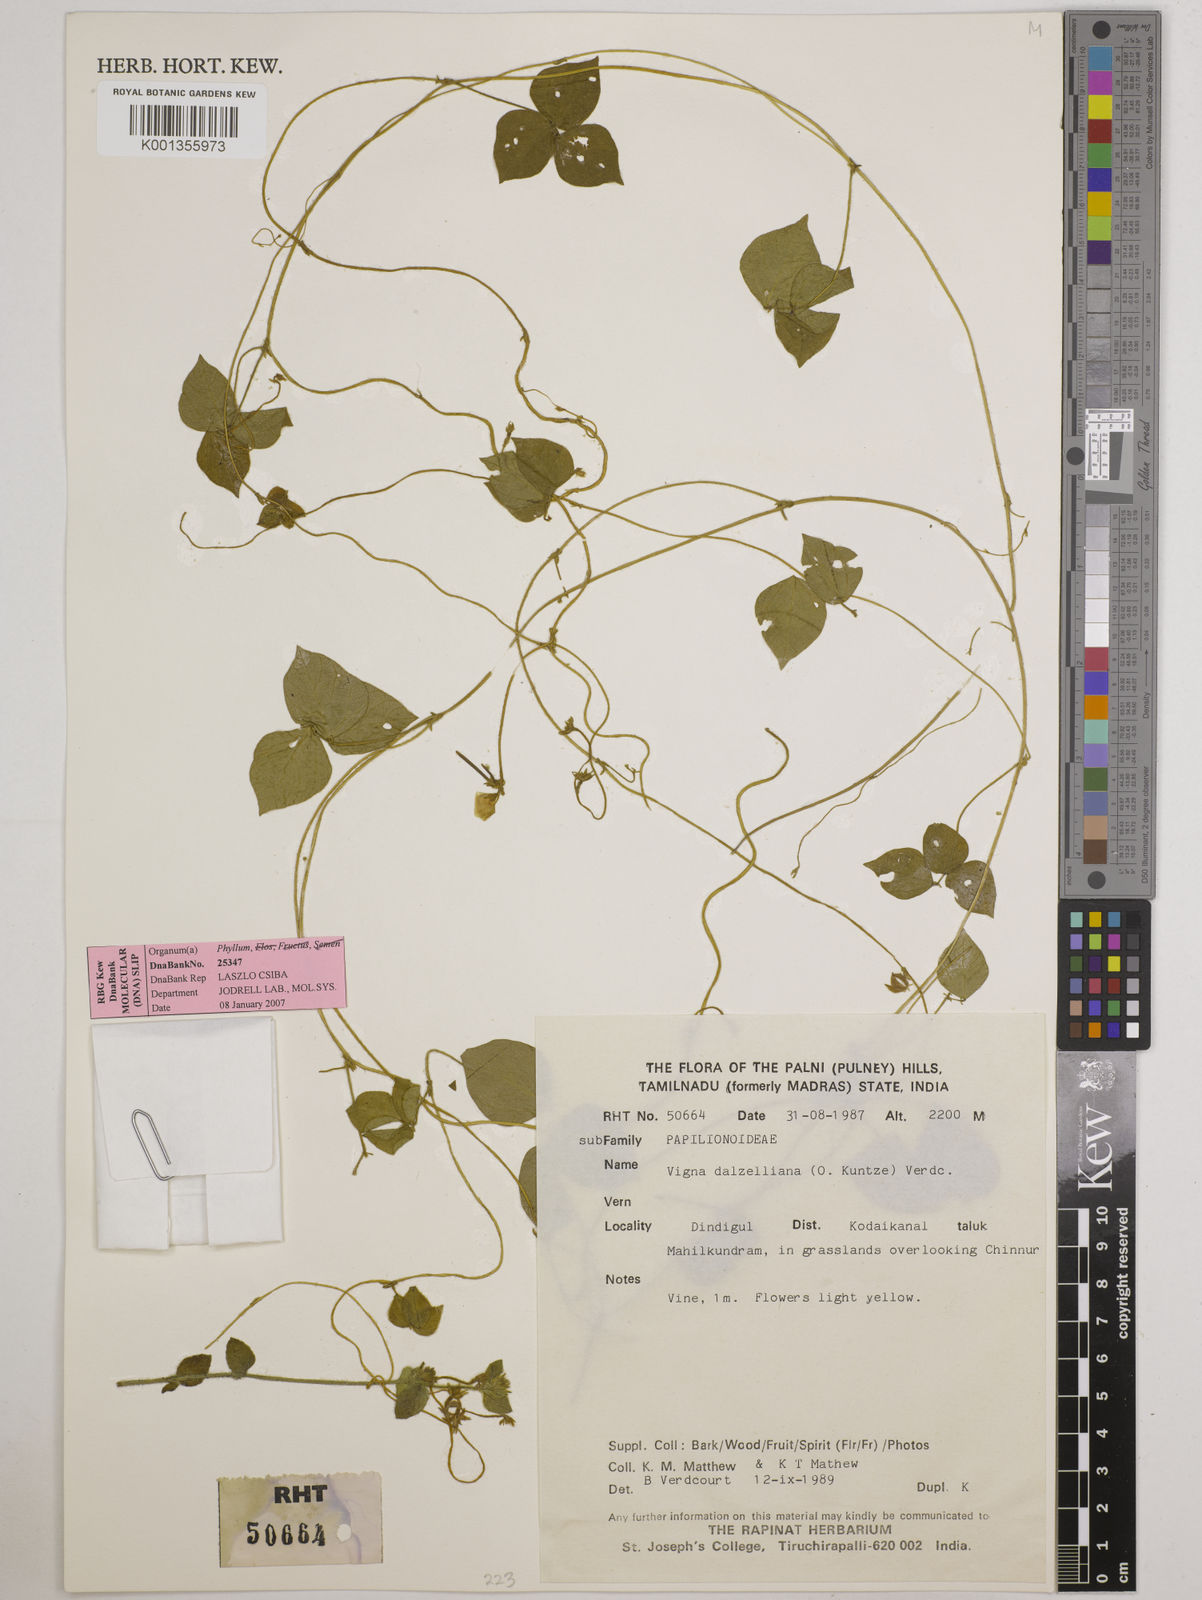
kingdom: Plantae
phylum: Tracheophyta
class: Magnoliopsida
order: Fabales
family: Fabaceae
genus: Vigna
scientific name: Vigna dalzelliana
